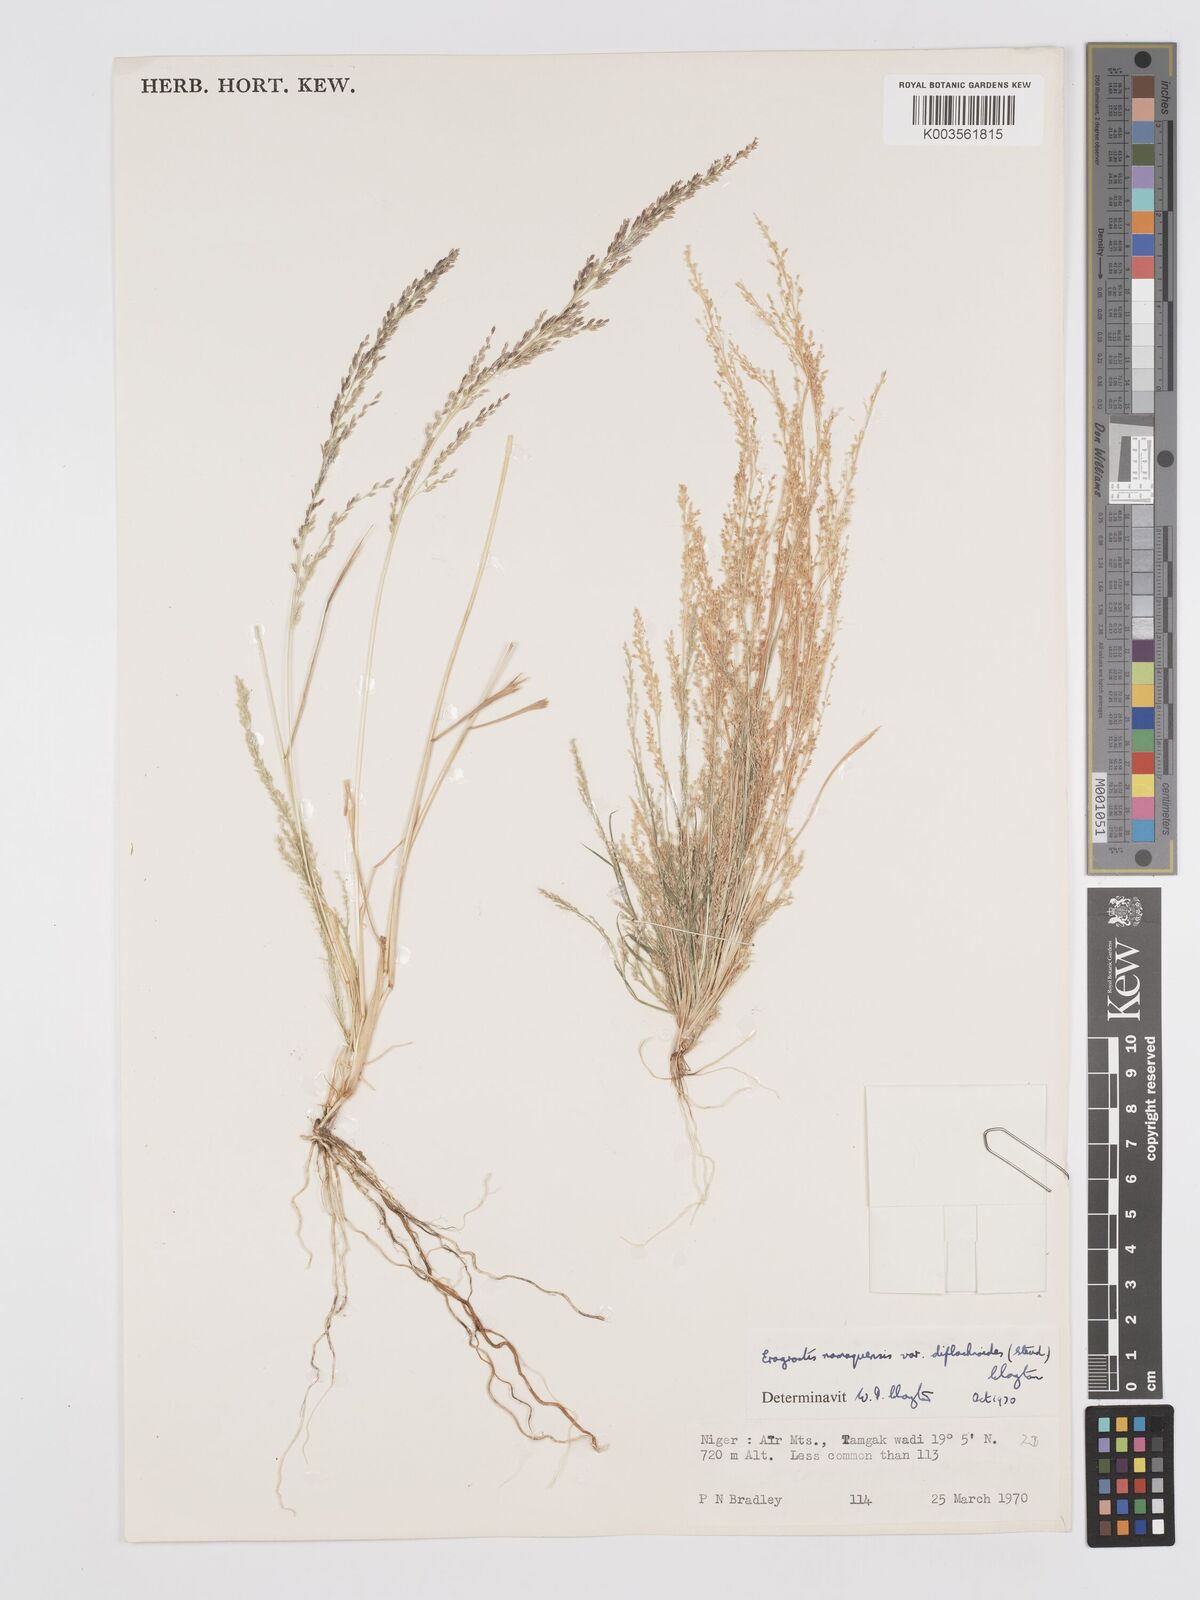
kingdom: Plantae
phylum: Tracheophyta
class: Liliopsida
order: Poales
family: Poaceae
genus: Eragrostis
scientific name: Eragrostis japonica
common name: Pond lovegrass
